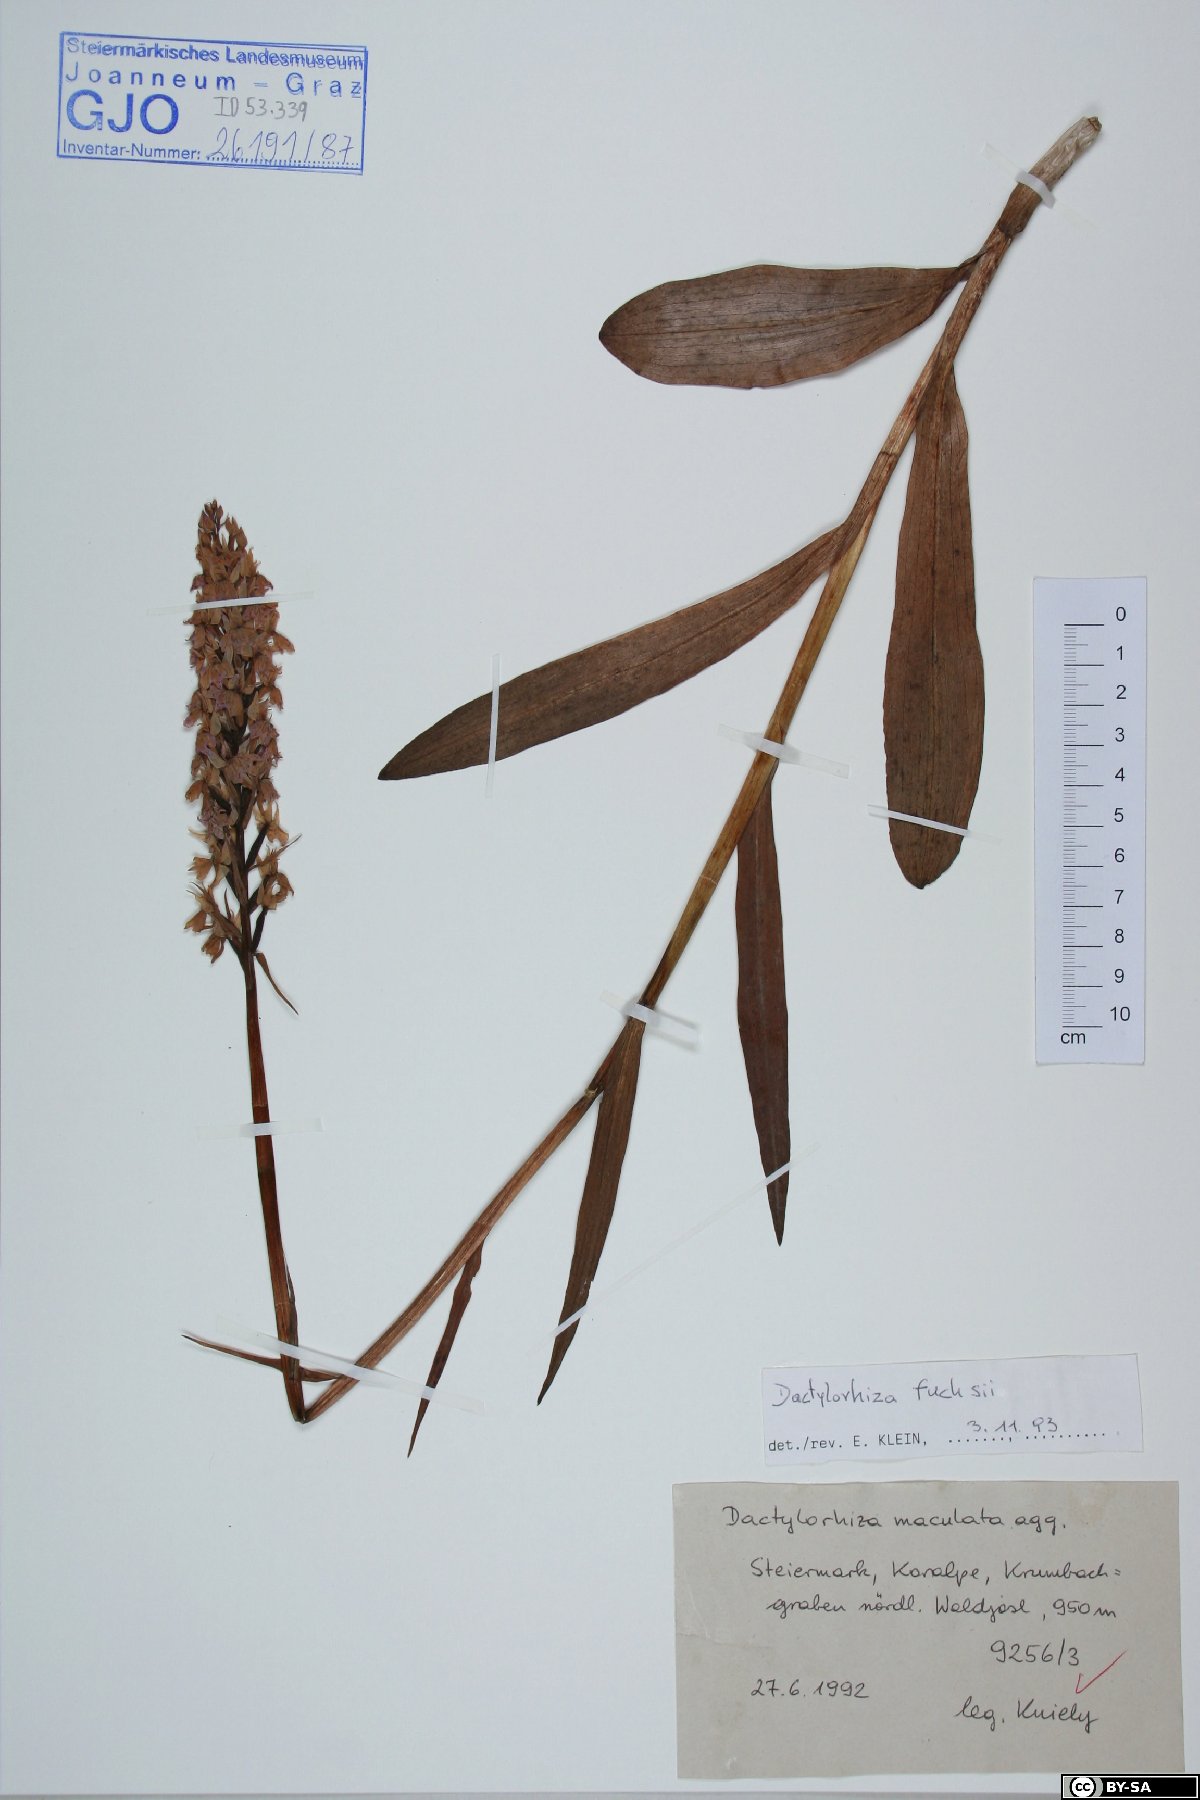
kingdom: Plantae
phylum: Tracheophyta
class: Liliopsida
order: Asparagales
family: Orchidaceae
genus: Dactylorhiza
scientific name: Dactylorhiza maculata
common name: Heath spotted-orchid
